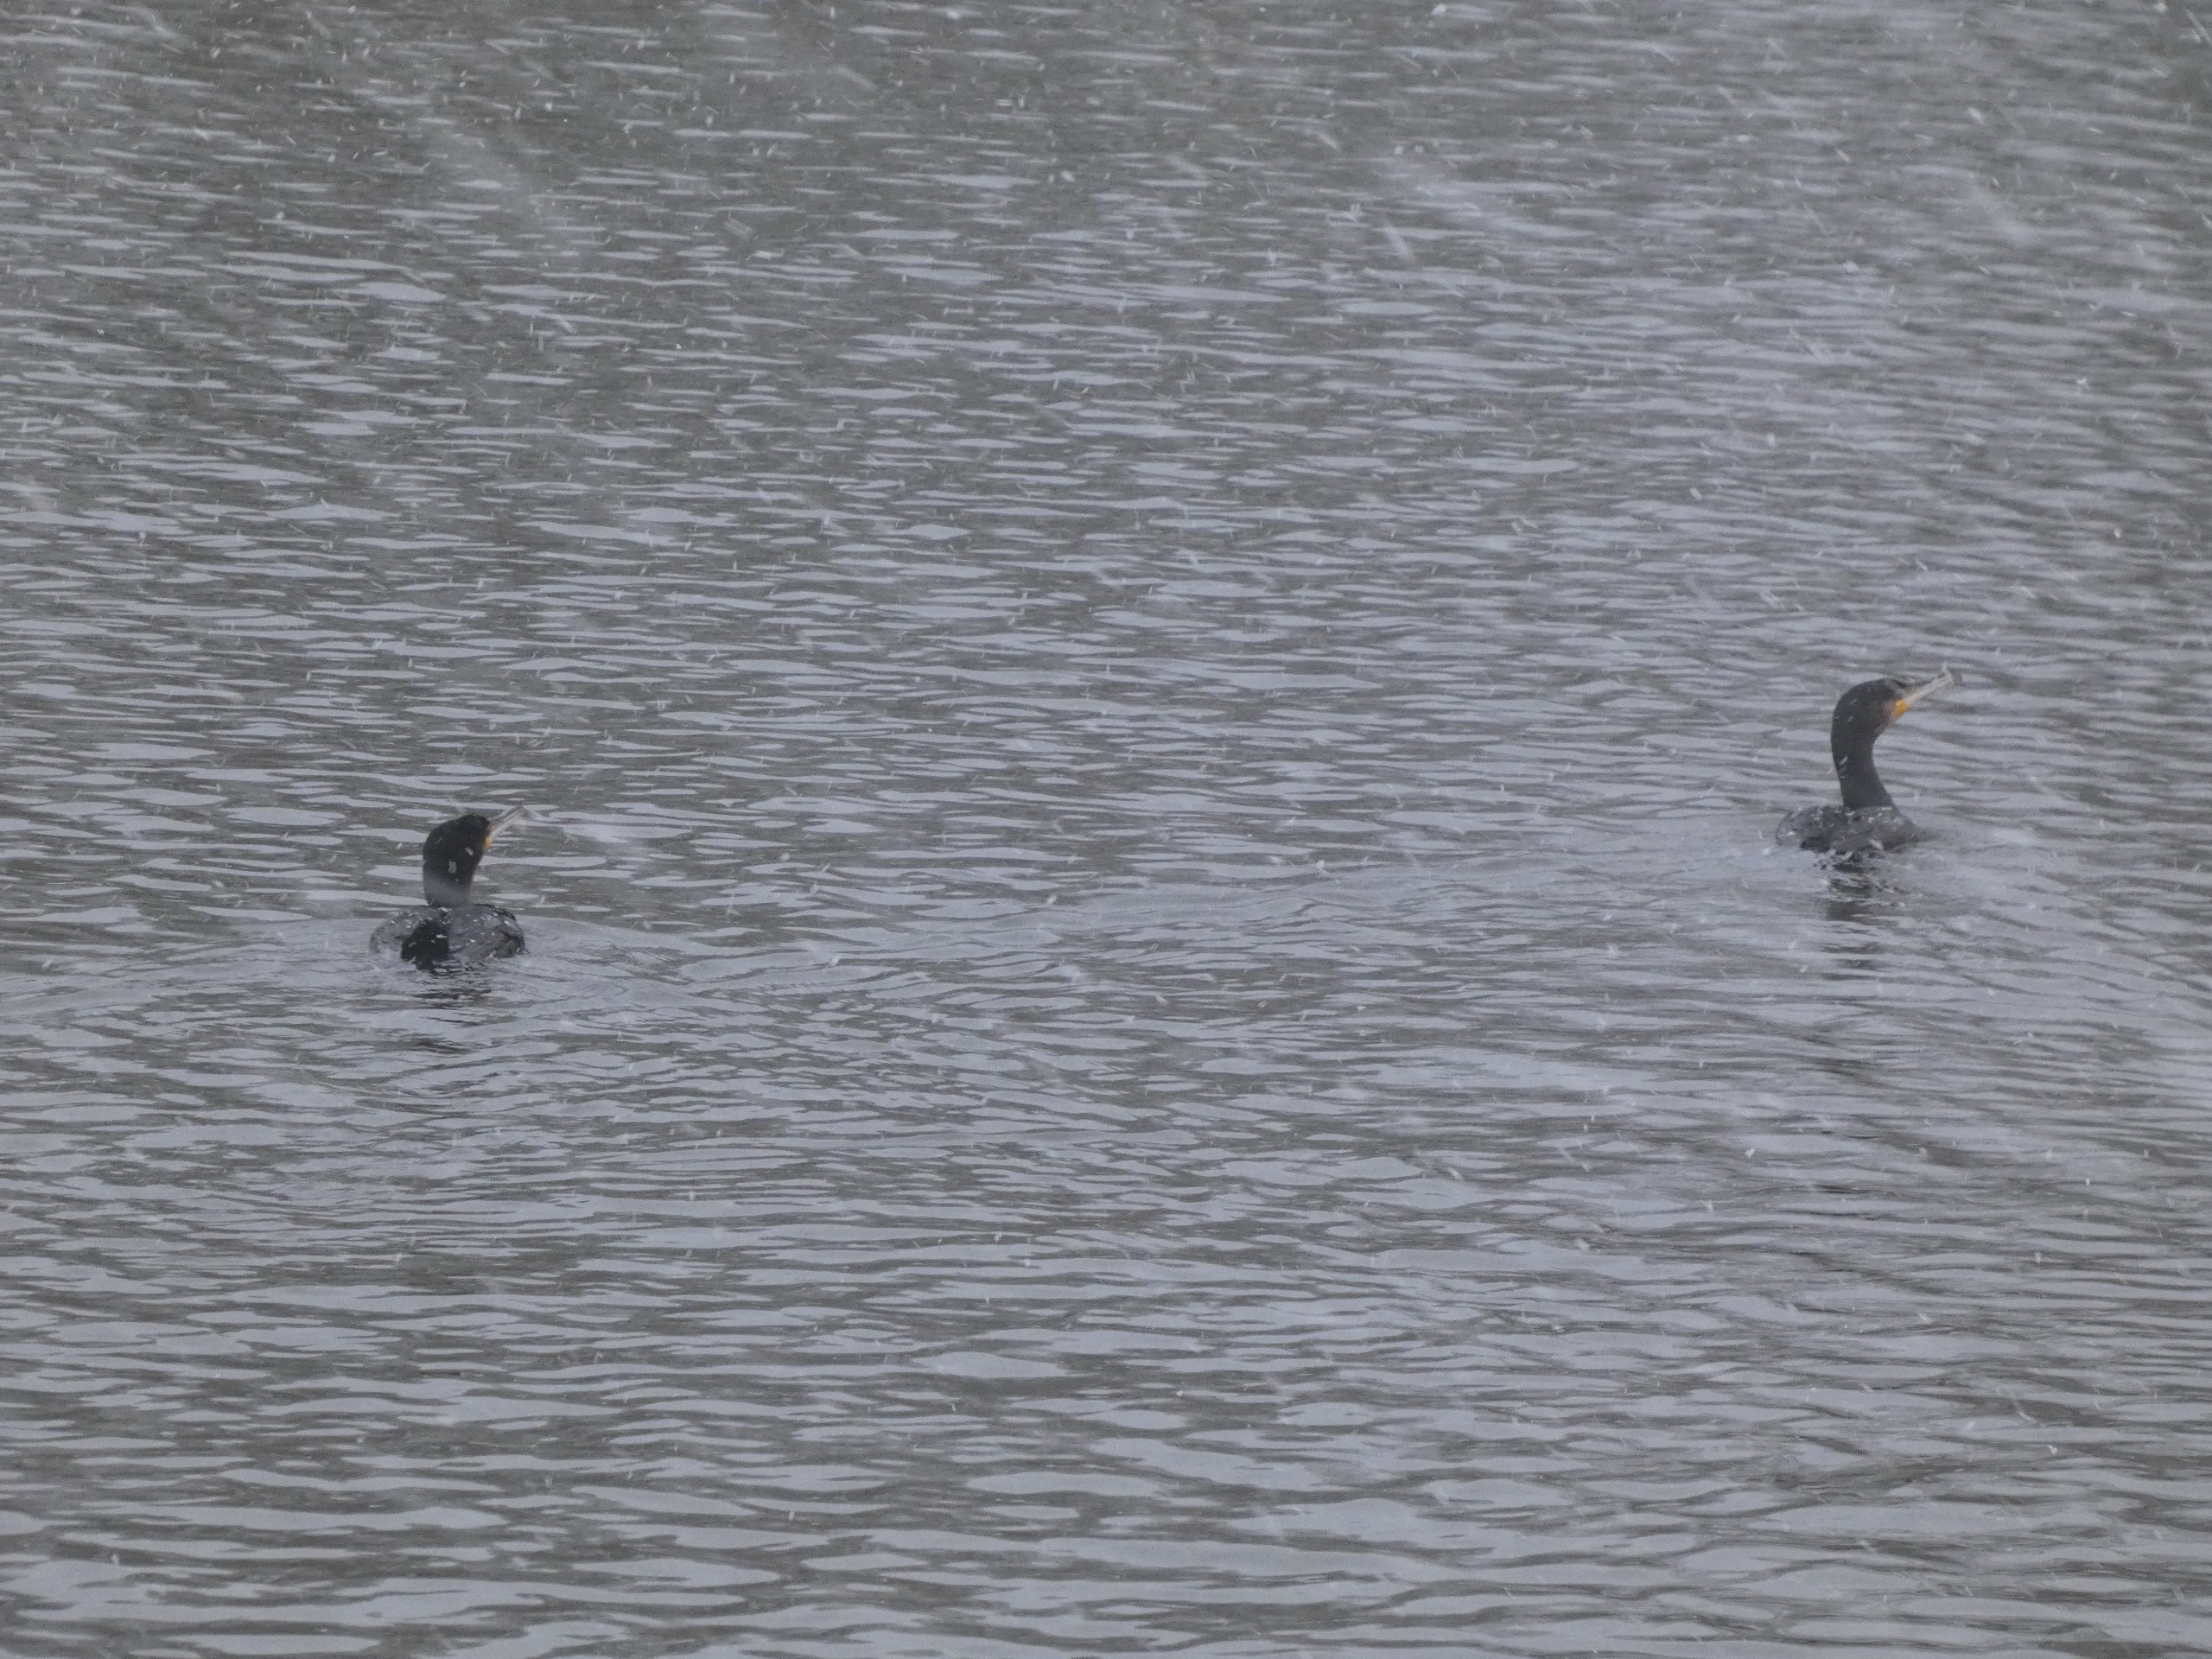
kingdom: Animalia
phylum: Chordata
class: Aves
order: Suliformes
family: Phalacrocoracidae
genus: Phalacrocorax
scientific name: Phalacrocorax carbo
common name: Skarv
